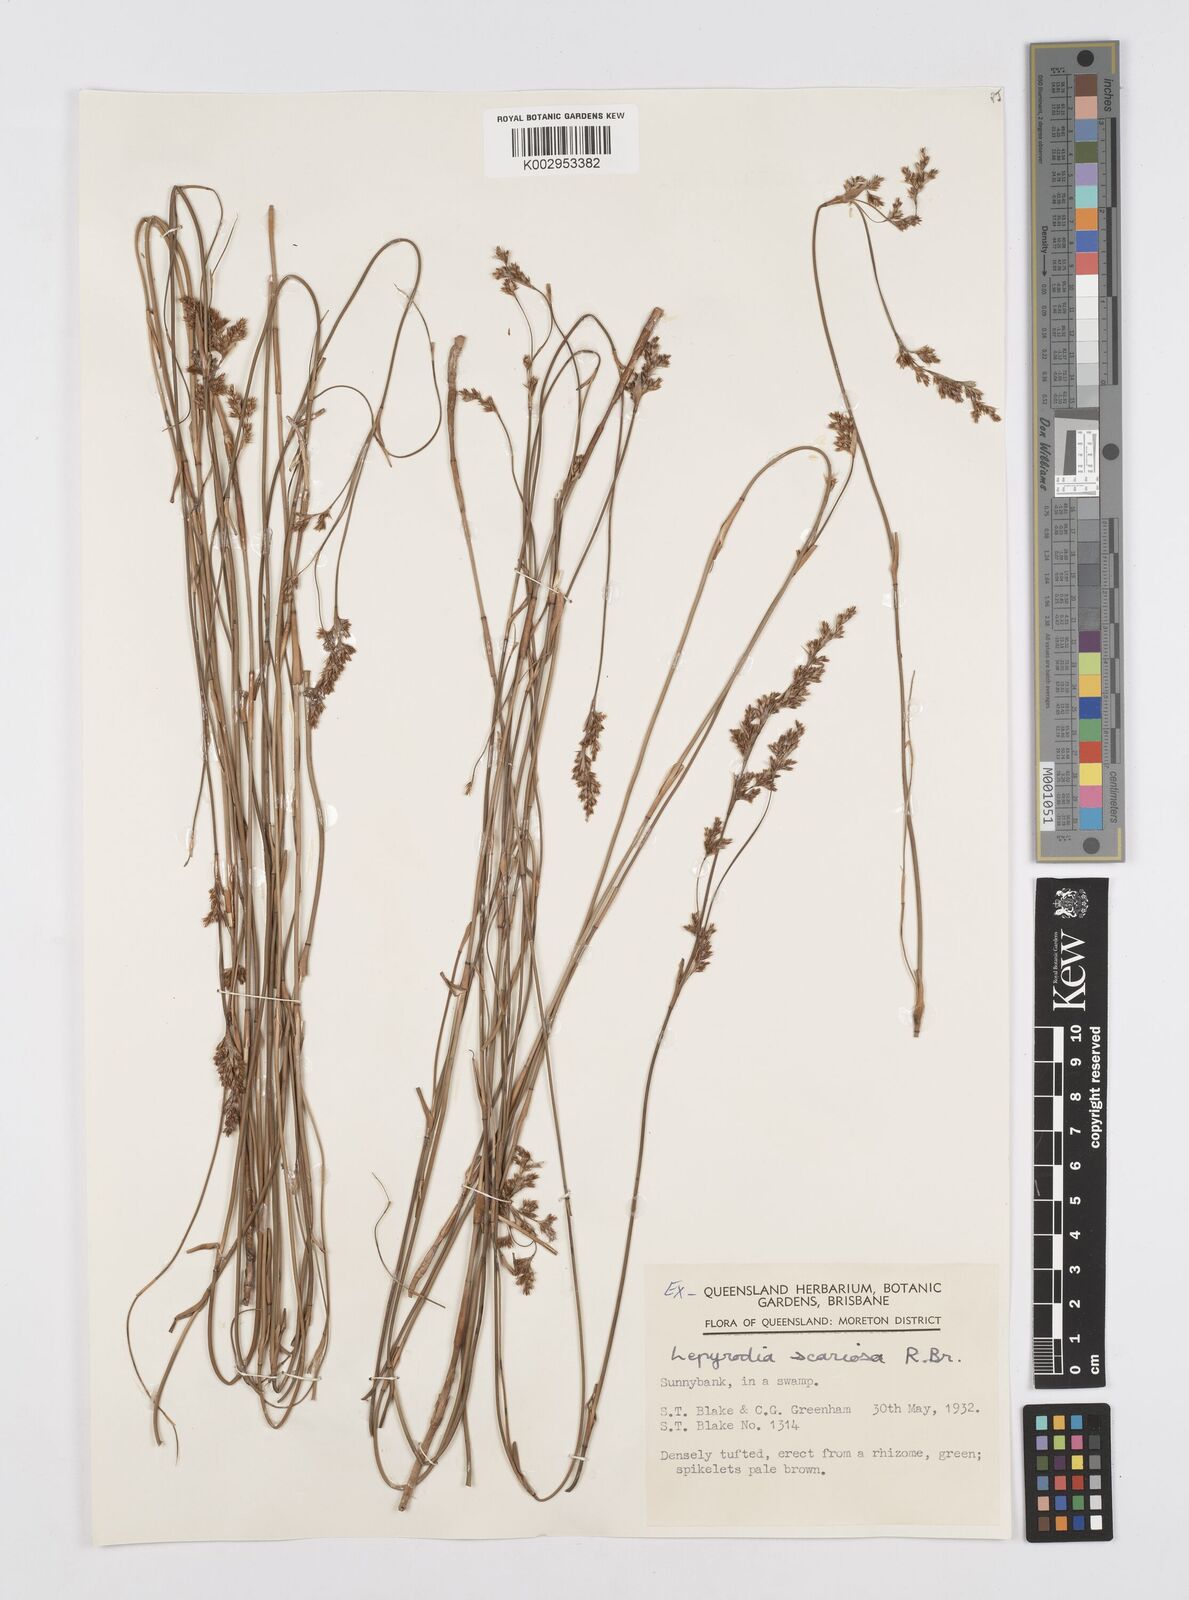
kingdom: Plantae
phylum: Tracheophyta
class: Liliopsida
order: Poales
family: Restionaceae
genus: Lepyrodia
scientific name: Lepyrodia scariosa
